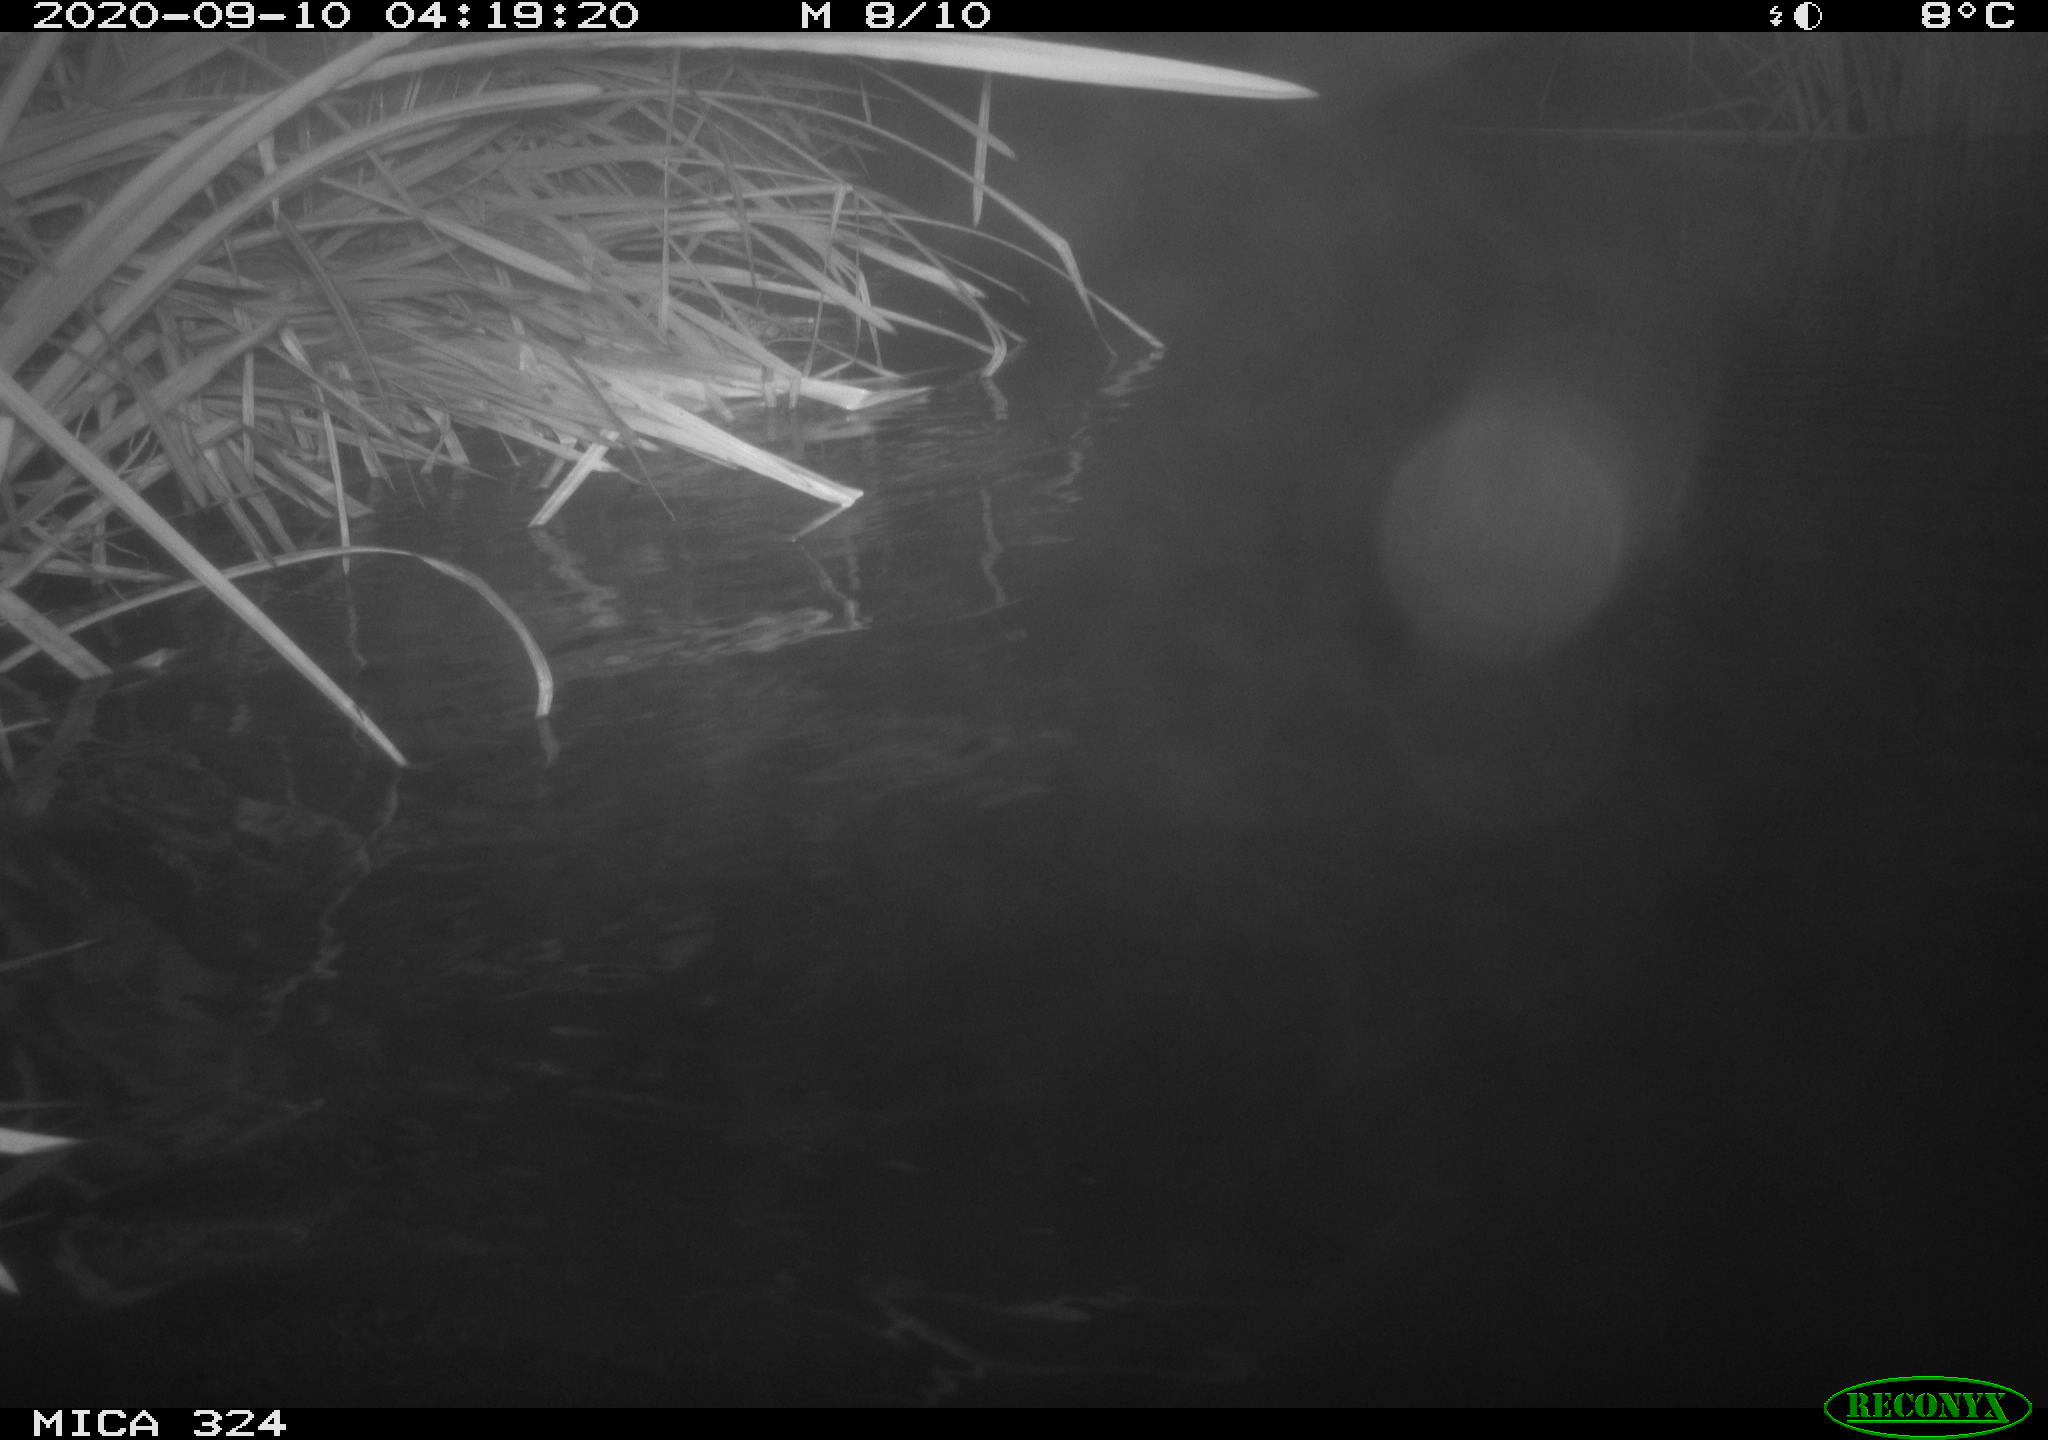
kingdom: Animalia
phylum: Chordata
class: Mammalia
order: Rodentia
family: Cricetidae
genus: Ondatra
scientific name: Ondatra zibethicus
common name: Muskrat
